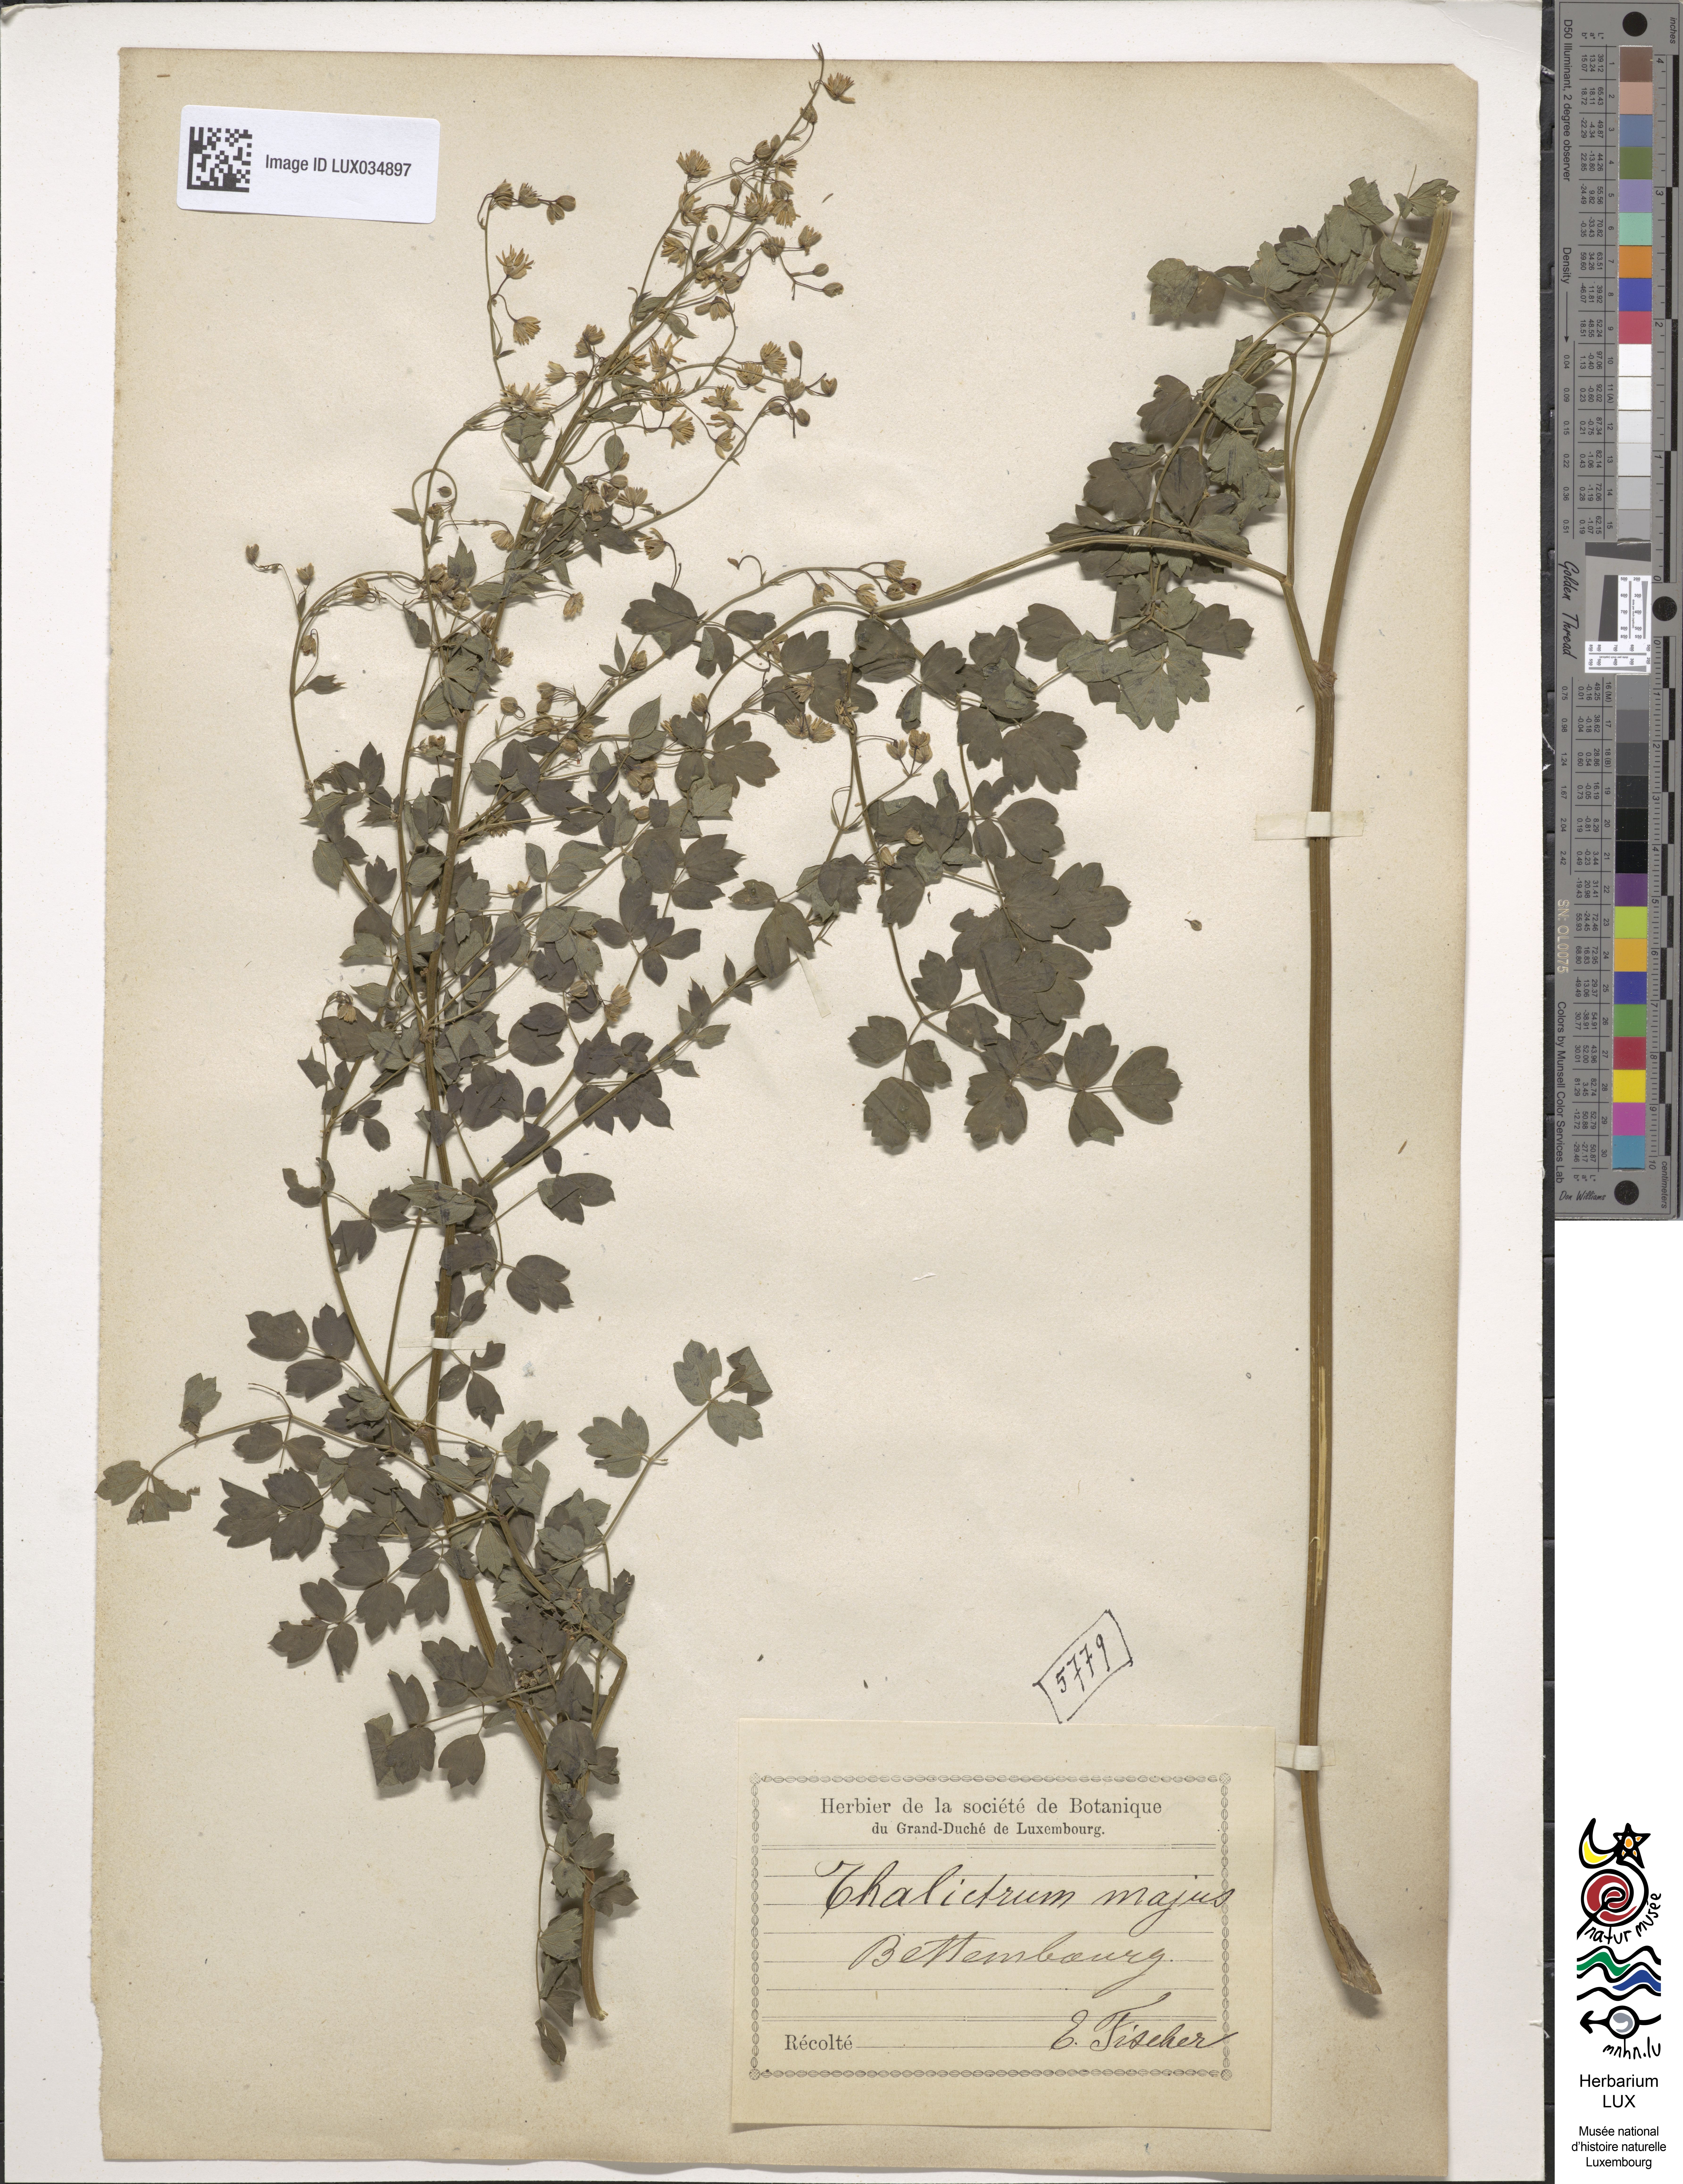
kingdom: Plantae
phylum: Tracheophyta
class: Magnoliopsida
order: Ranunculales
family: Ranunculaceae
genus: Thalictrum
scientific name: Thalictrum majus
